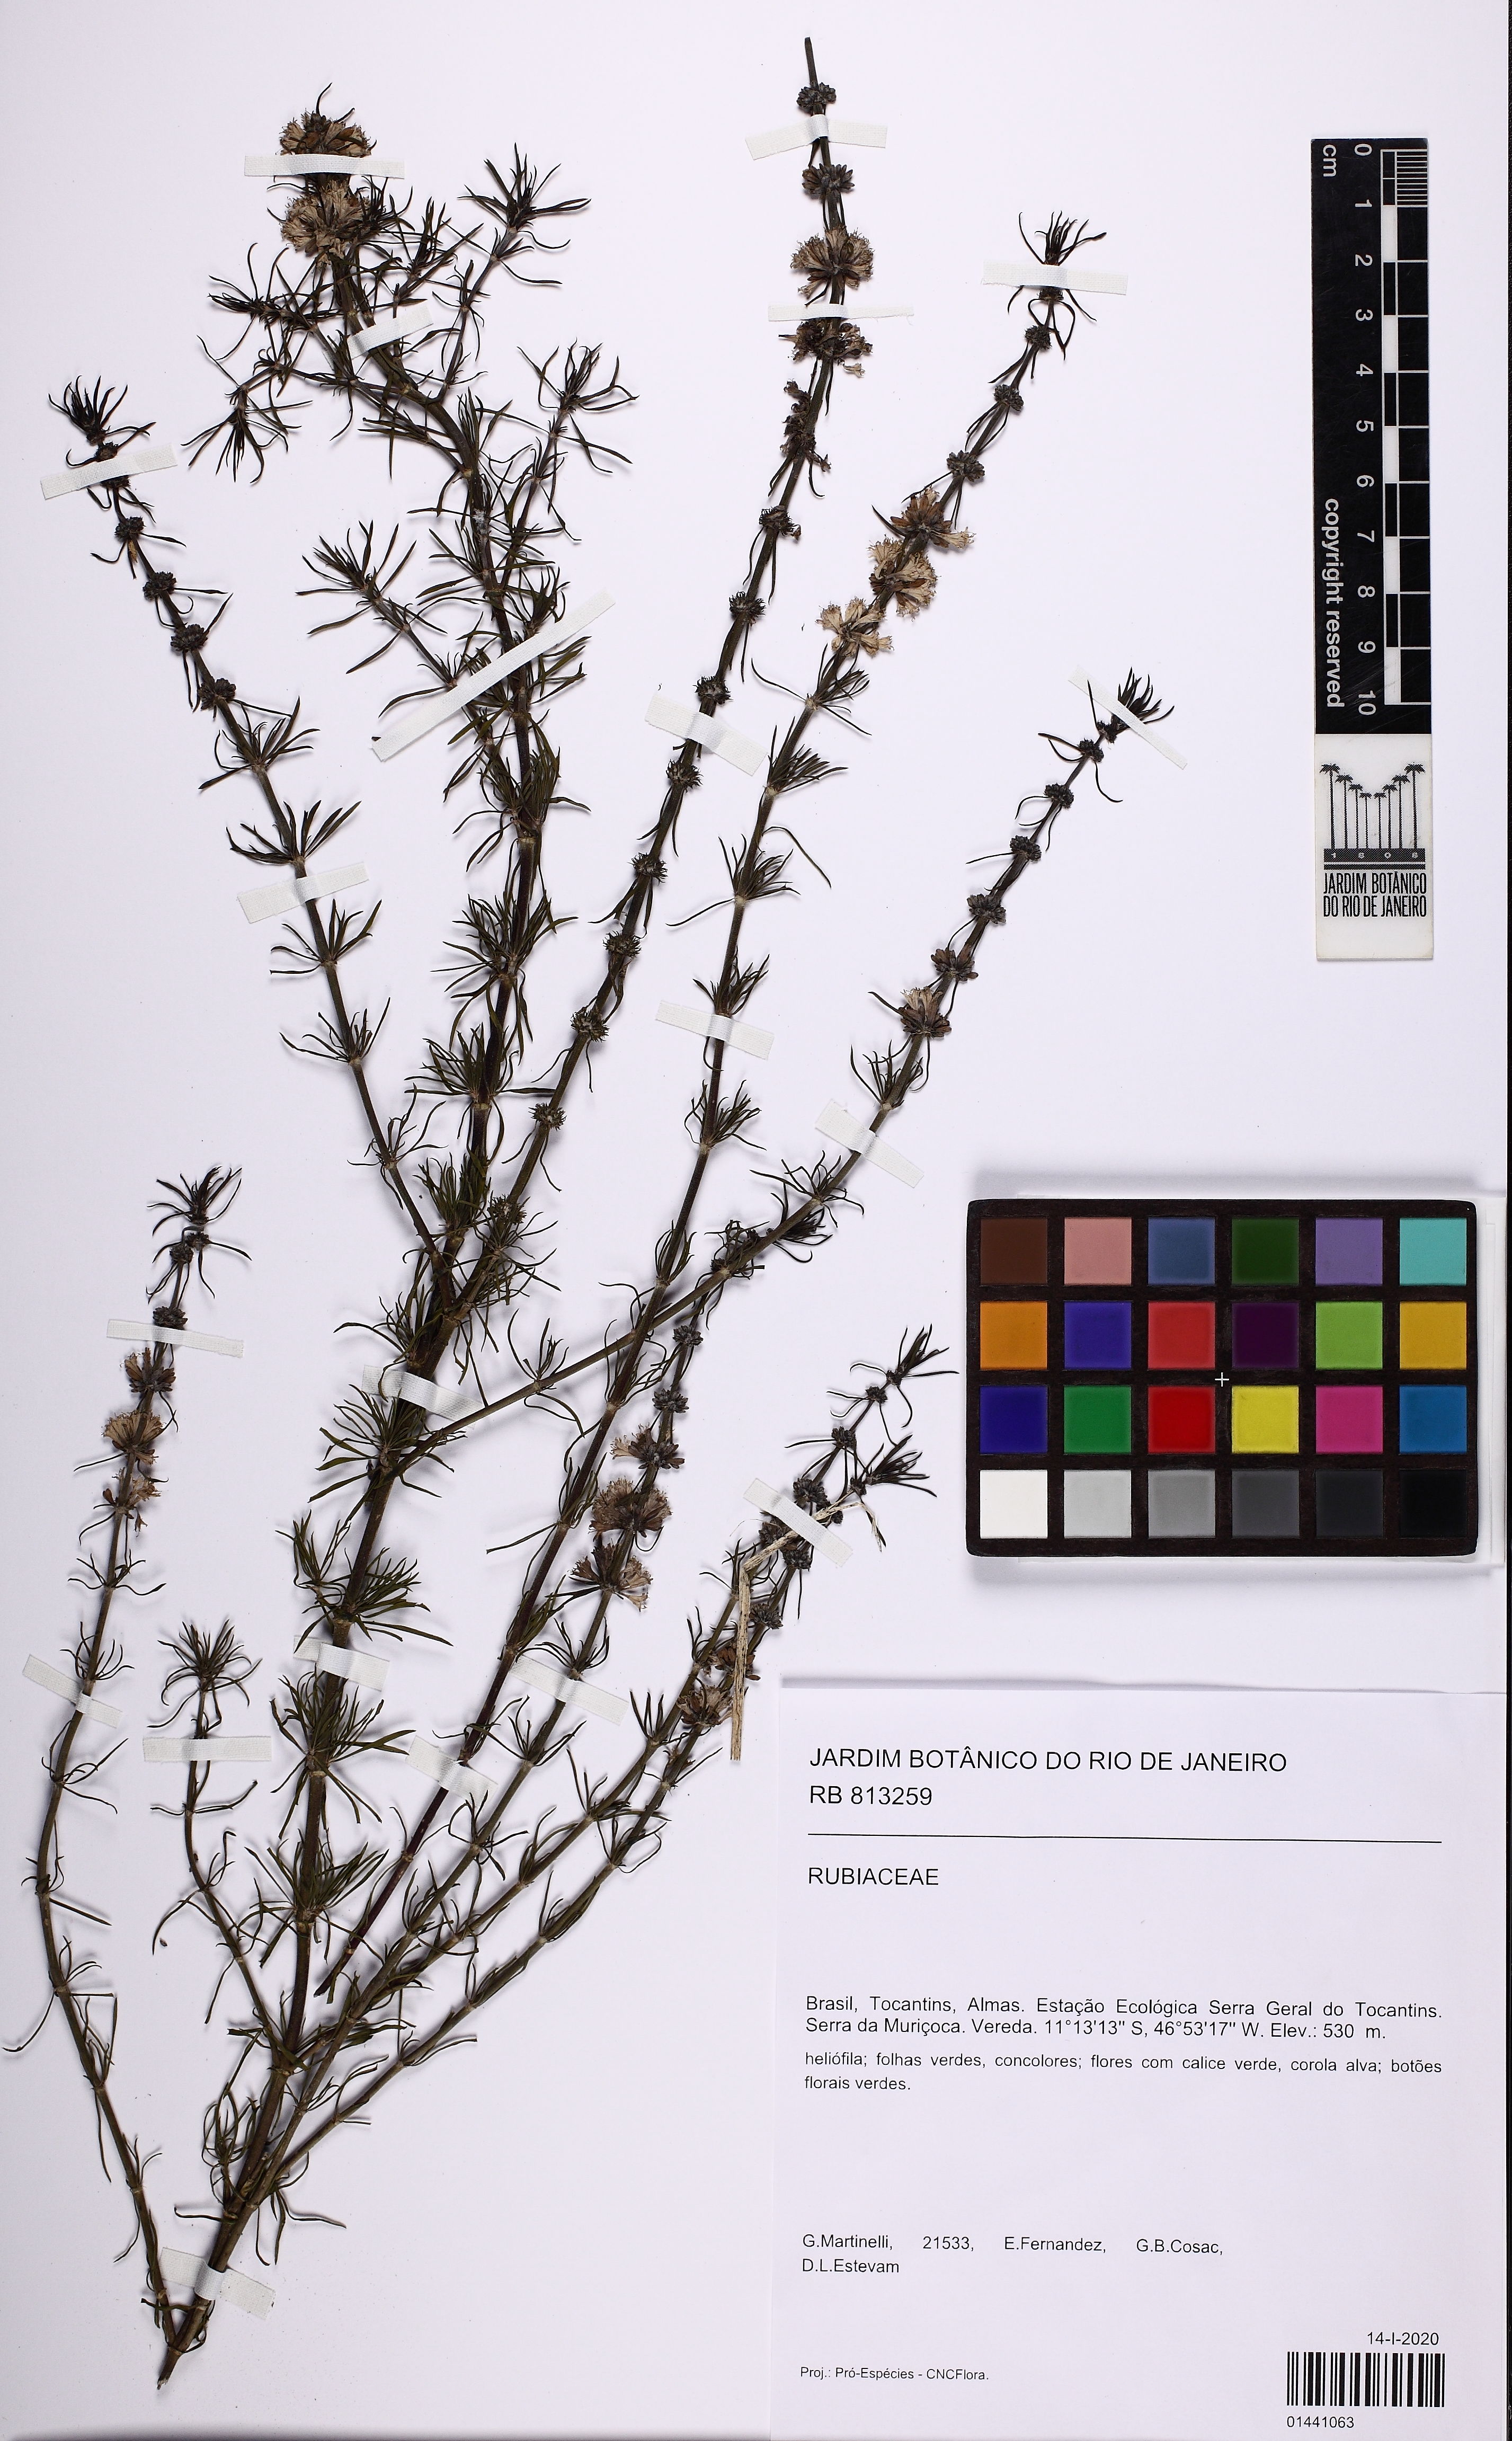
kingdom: Plantae
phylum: Tracheophyta
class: Magnoliopsida
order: Gentianales
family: Rubiaceae
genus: Staelia
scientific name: Staelia
